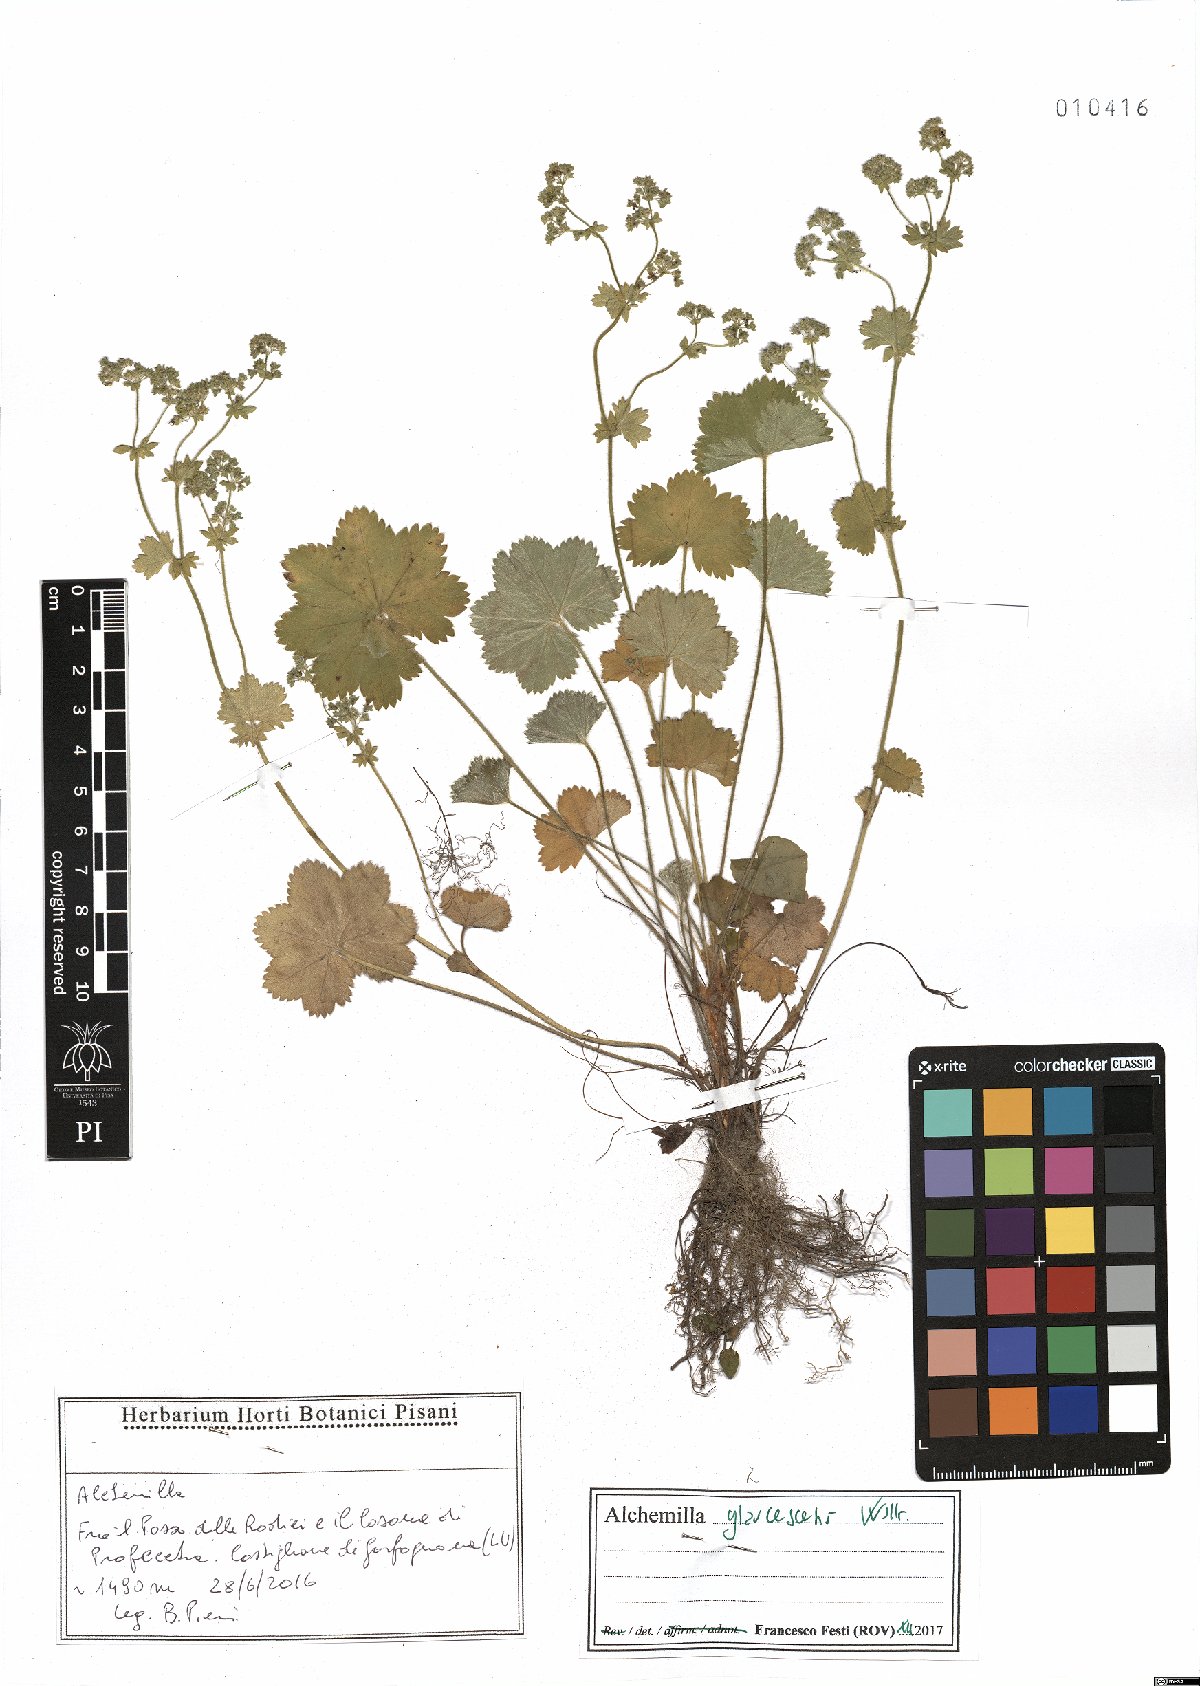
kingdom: Plantae
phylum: Tracheophyta
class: Magnoliopsida
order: Rosales
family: Rosaceae
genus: Alchemilla
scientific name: Alchemilla glaucescens
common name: Silky lady's mantle
